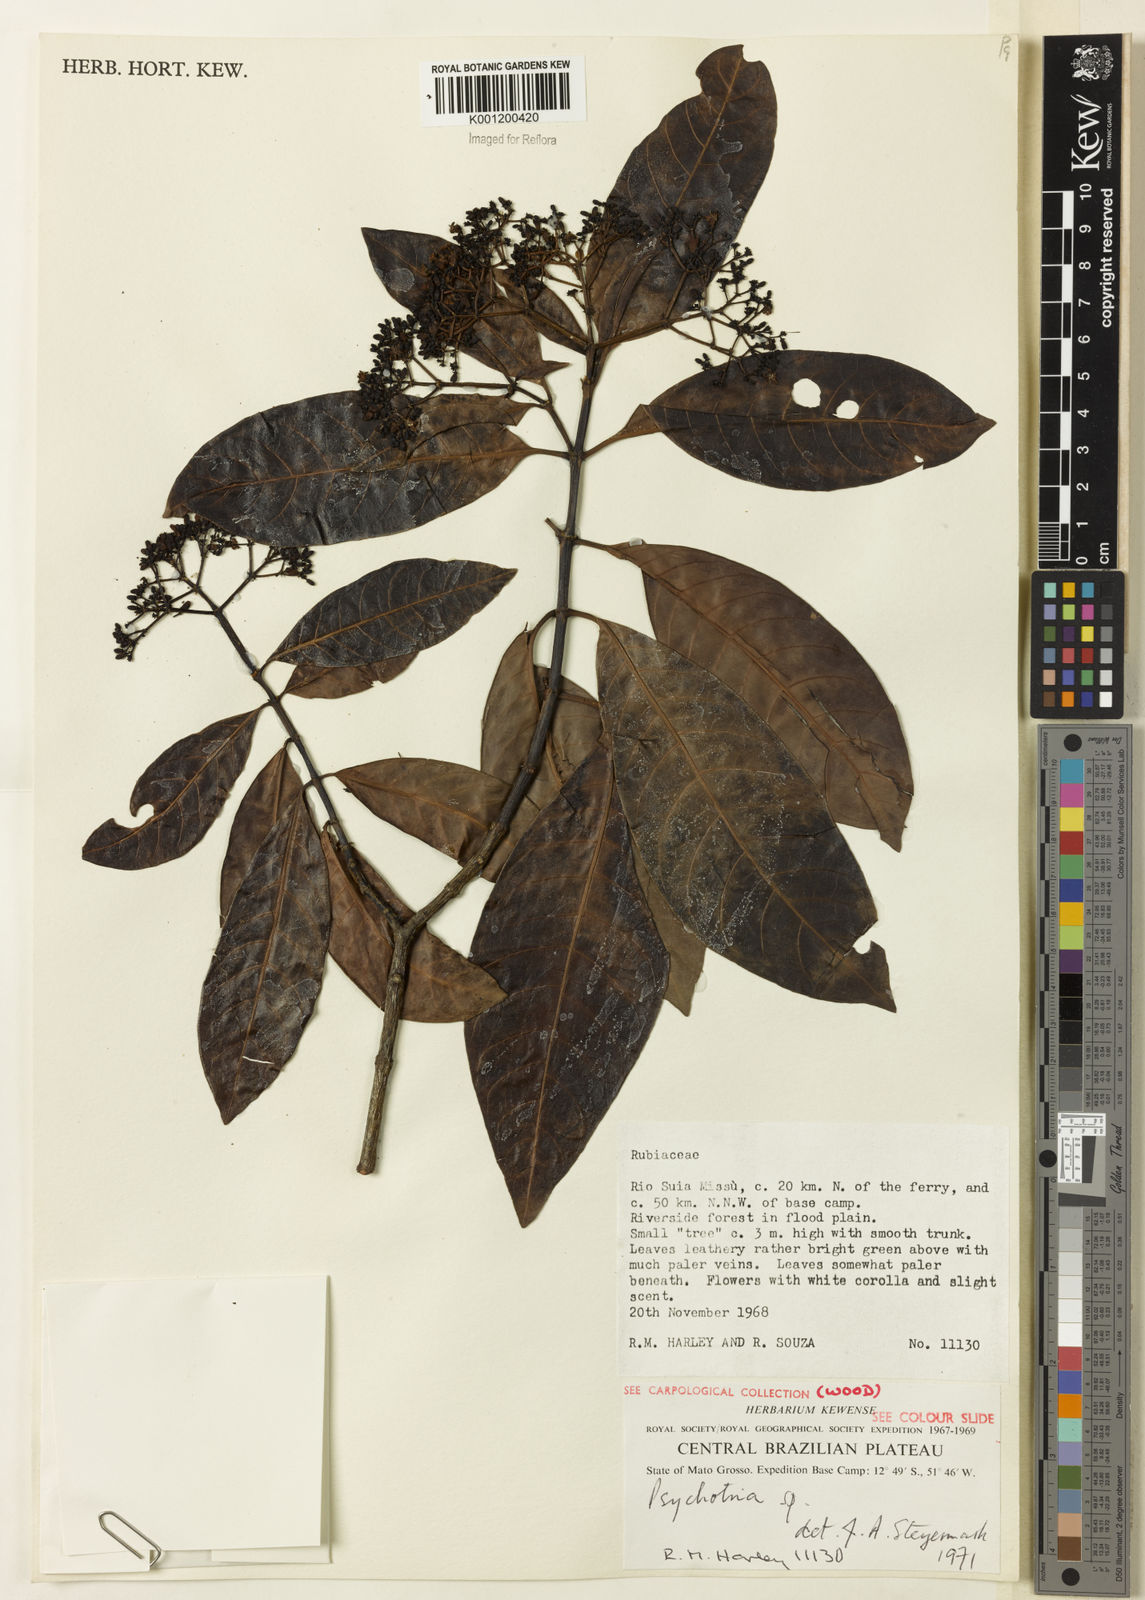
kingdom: Plantae
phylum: Tracheophyta
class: Magnoliopsida
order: Gentianales
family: Rubiaceae
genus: Psychotria
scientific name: Psychotria carthagenensis
